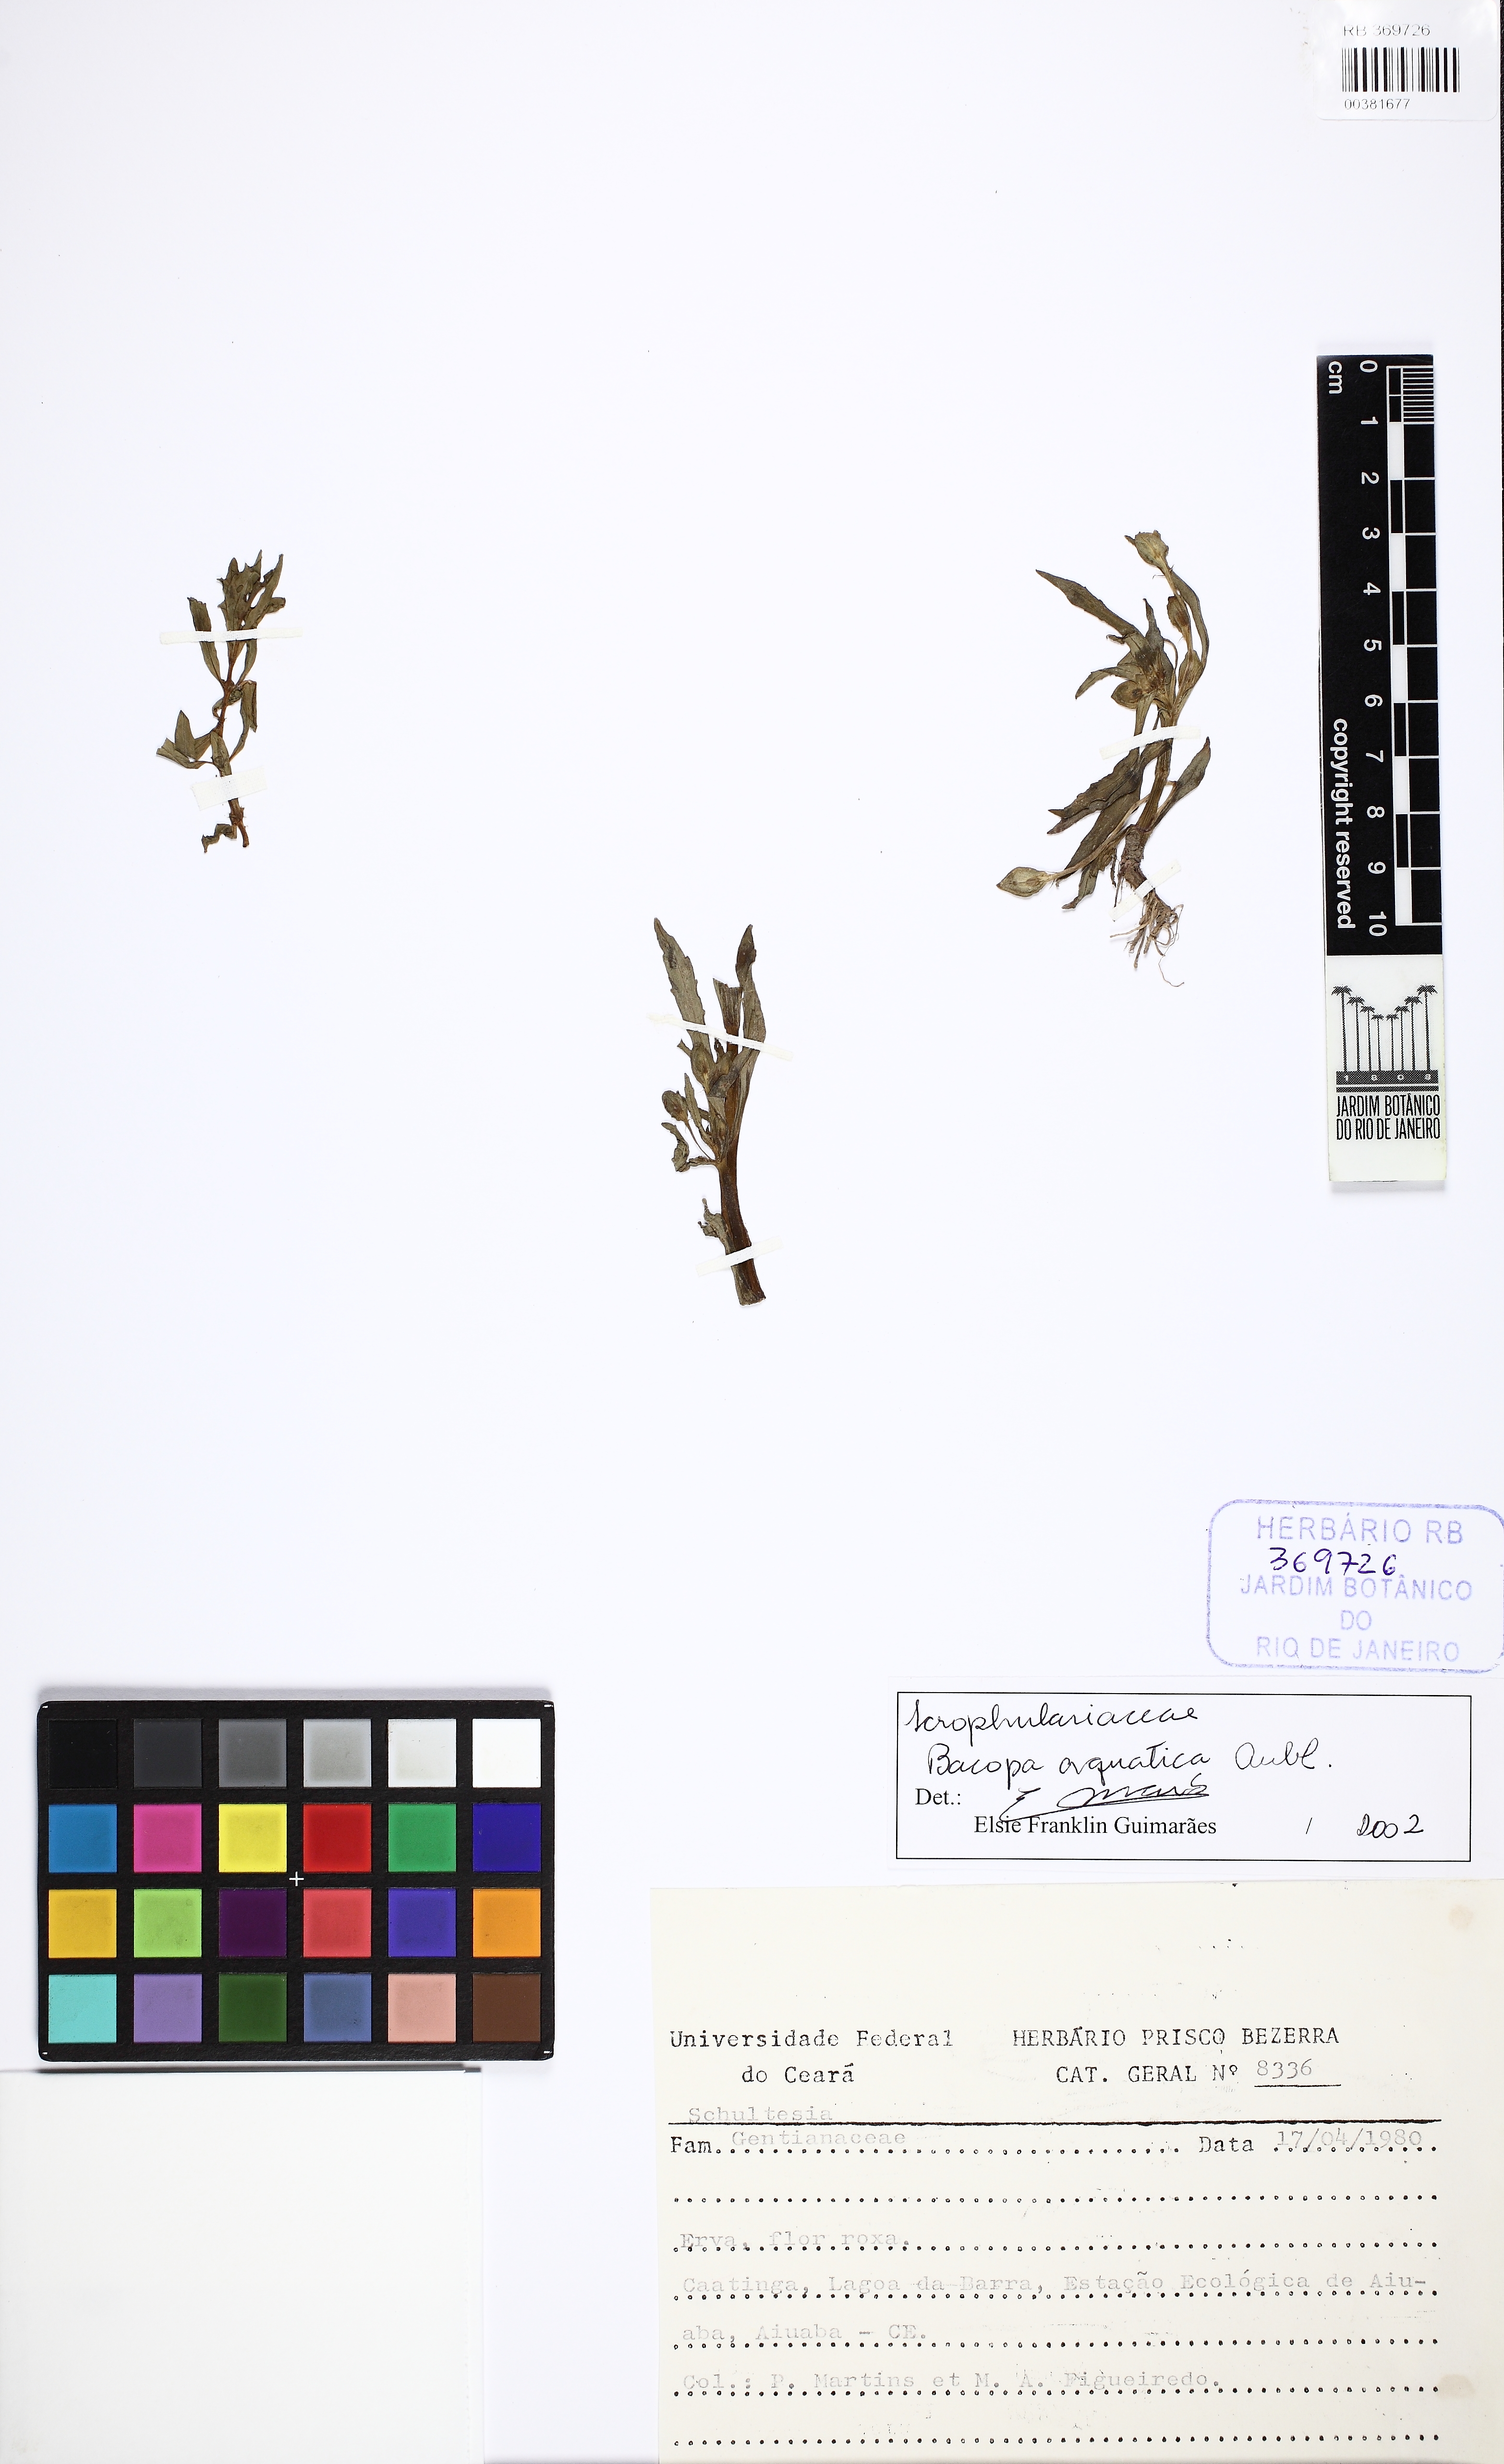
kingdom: Plantae
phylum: Tracheophyta
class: Magnoliopsida
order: Lamiales
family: Plantaginaceae
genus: Bacopa
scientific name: Bacopa aquatica
